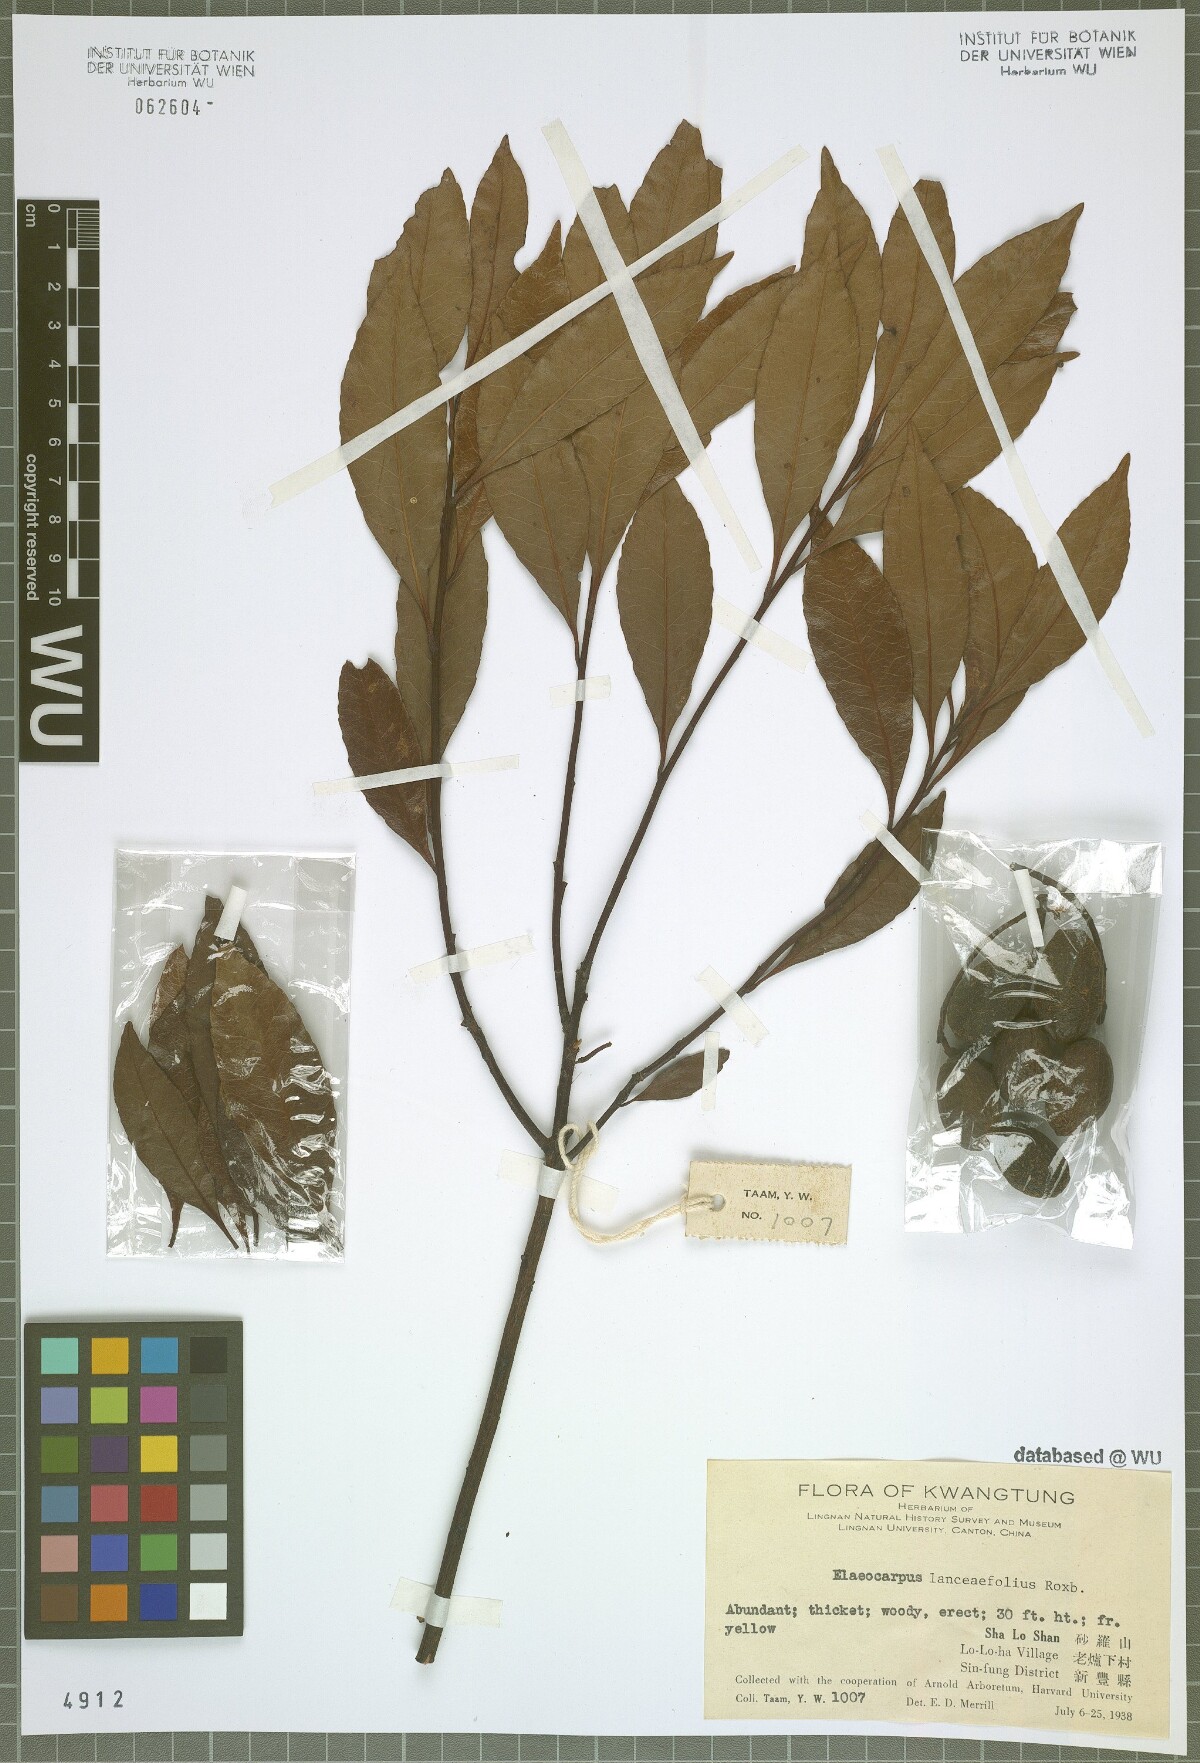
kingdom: Plantae
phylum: Tracheophyta
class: Magnoliopsida
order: Oxalidales
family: Elaeocarpaceae
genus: Elaeocarpus
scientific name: Elaeocarpus lanceifolius
